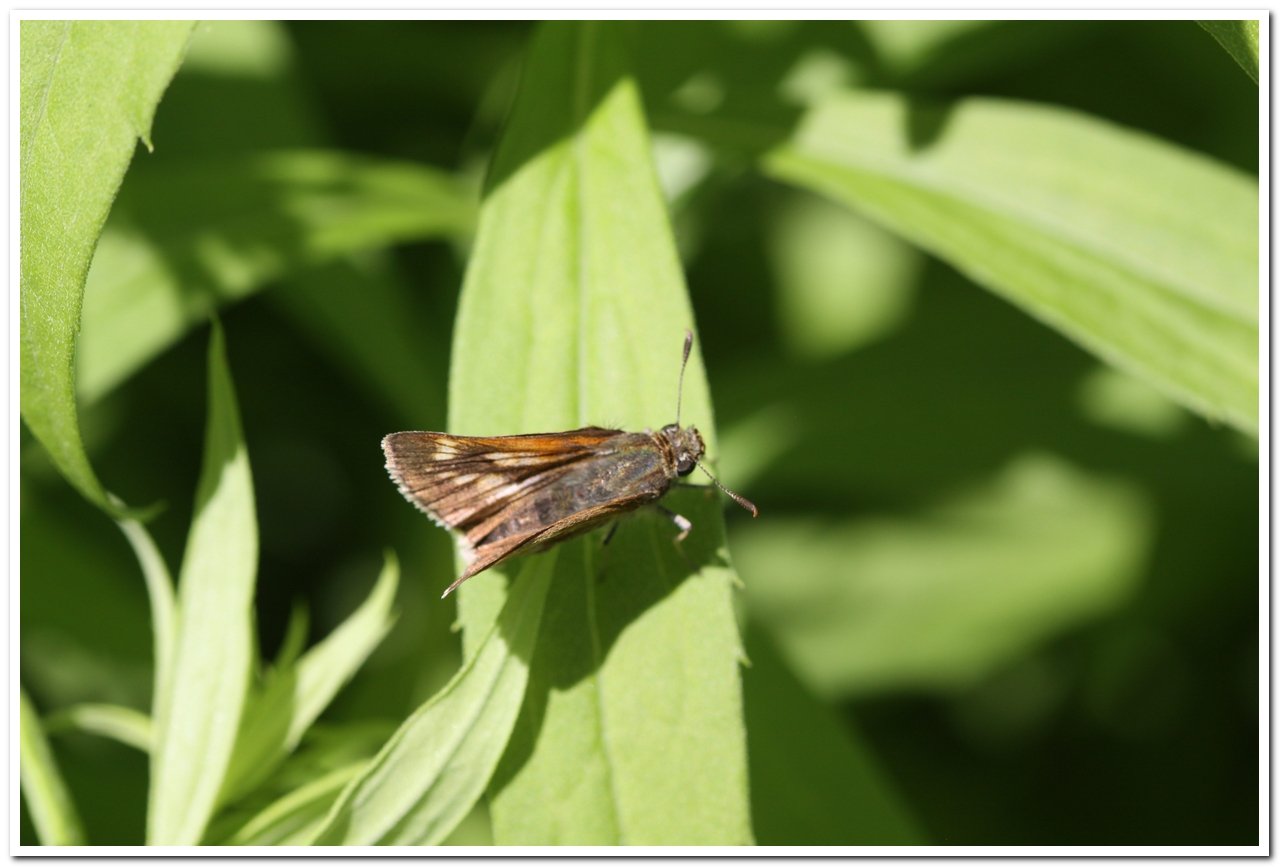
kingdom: Animalia
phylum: Arthropoda
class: Insecta
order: Lepidoptera
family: Hesperiidae
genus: Polites
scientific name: Polites
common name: Long Dash Skipper
